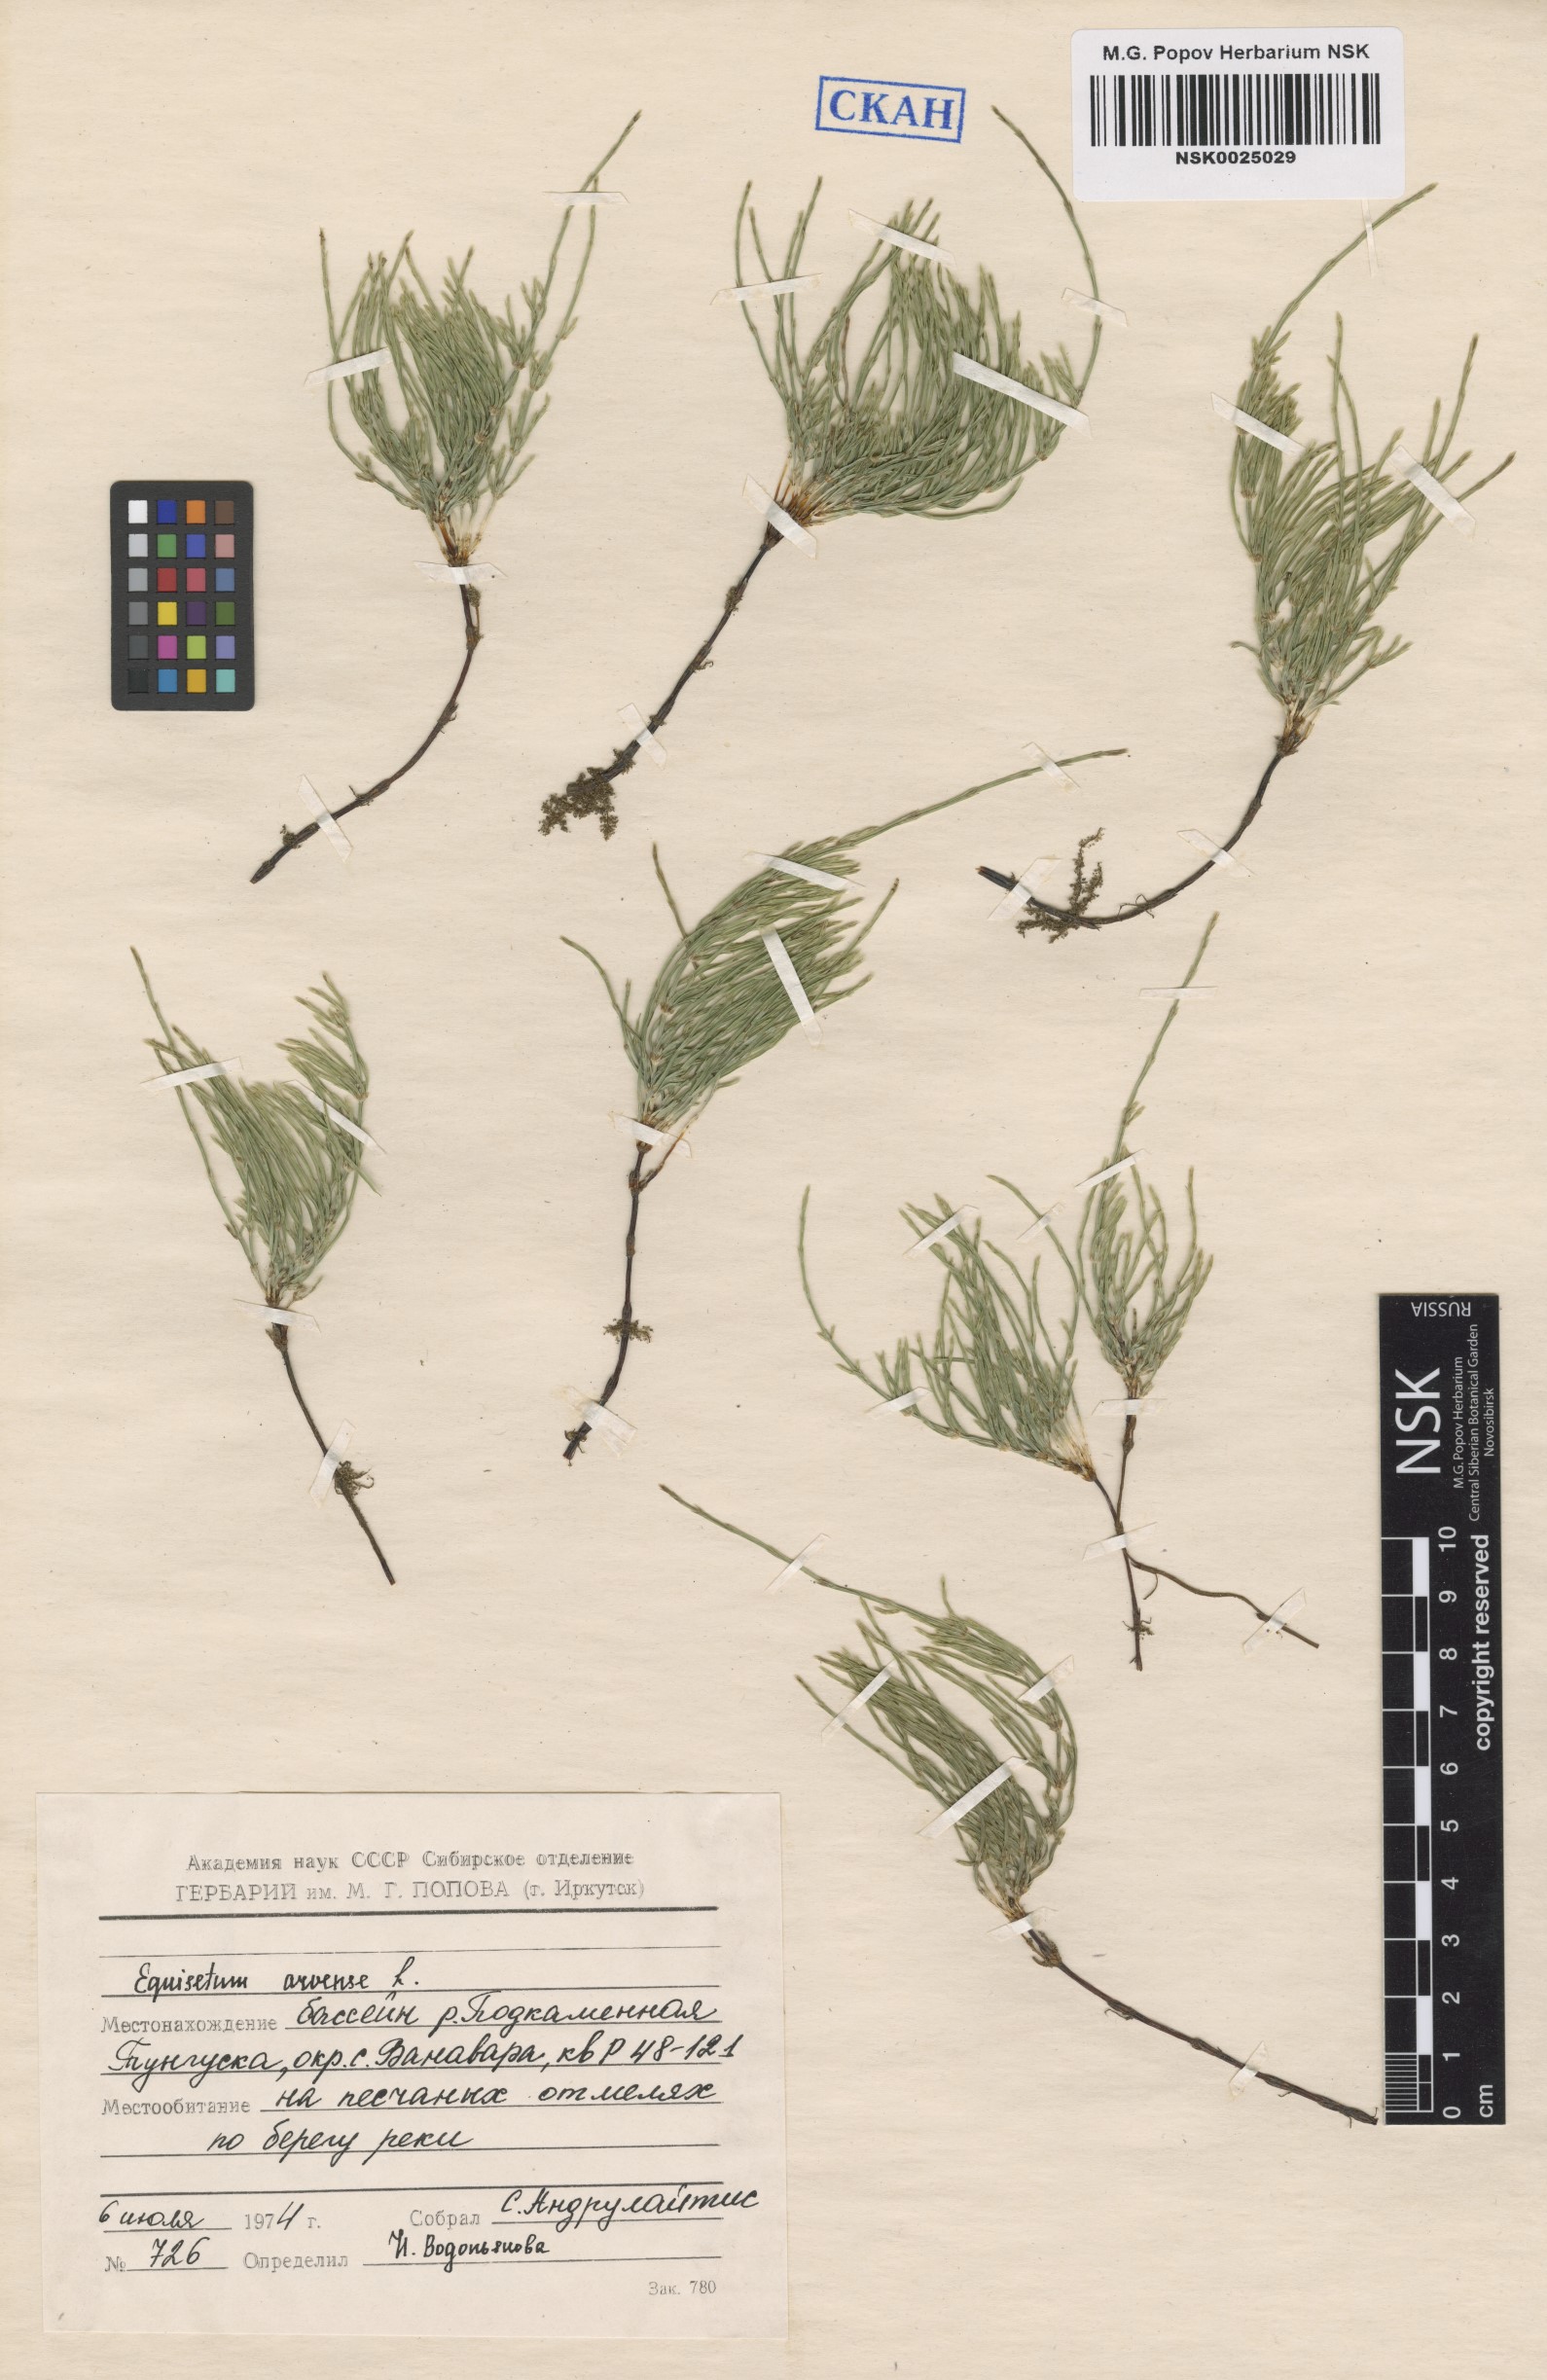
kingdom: Plantae
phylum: Tracheophyta
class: Polypodiopsida
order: Equisetales
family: Equisetaceae
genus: Equisetum
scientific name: Equisetum arvense
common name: Field horsetail
